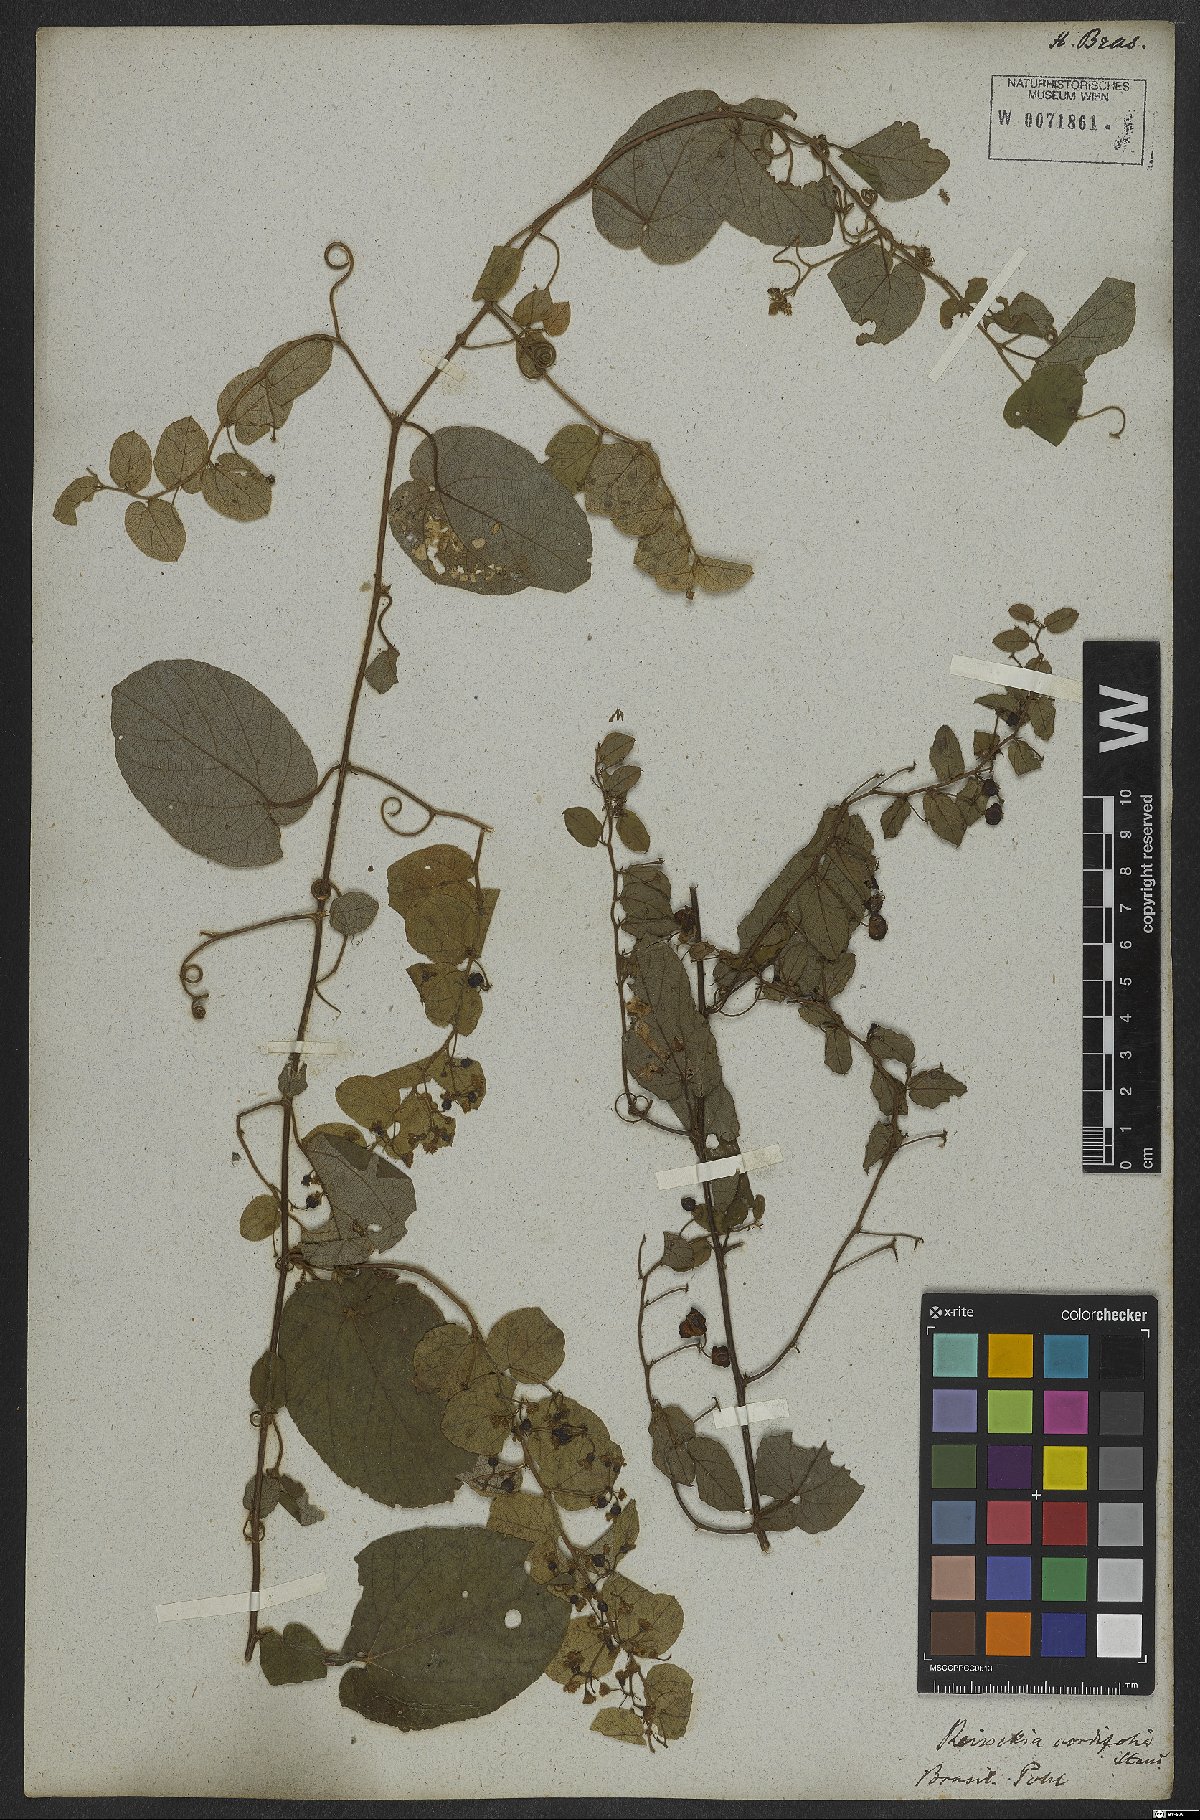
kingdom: Plantae
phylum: Tracheophyta
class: Magnoliopsida
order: Rosales
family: Rhamnaceae
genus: Reissekia
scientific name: Reissekia smilacina
